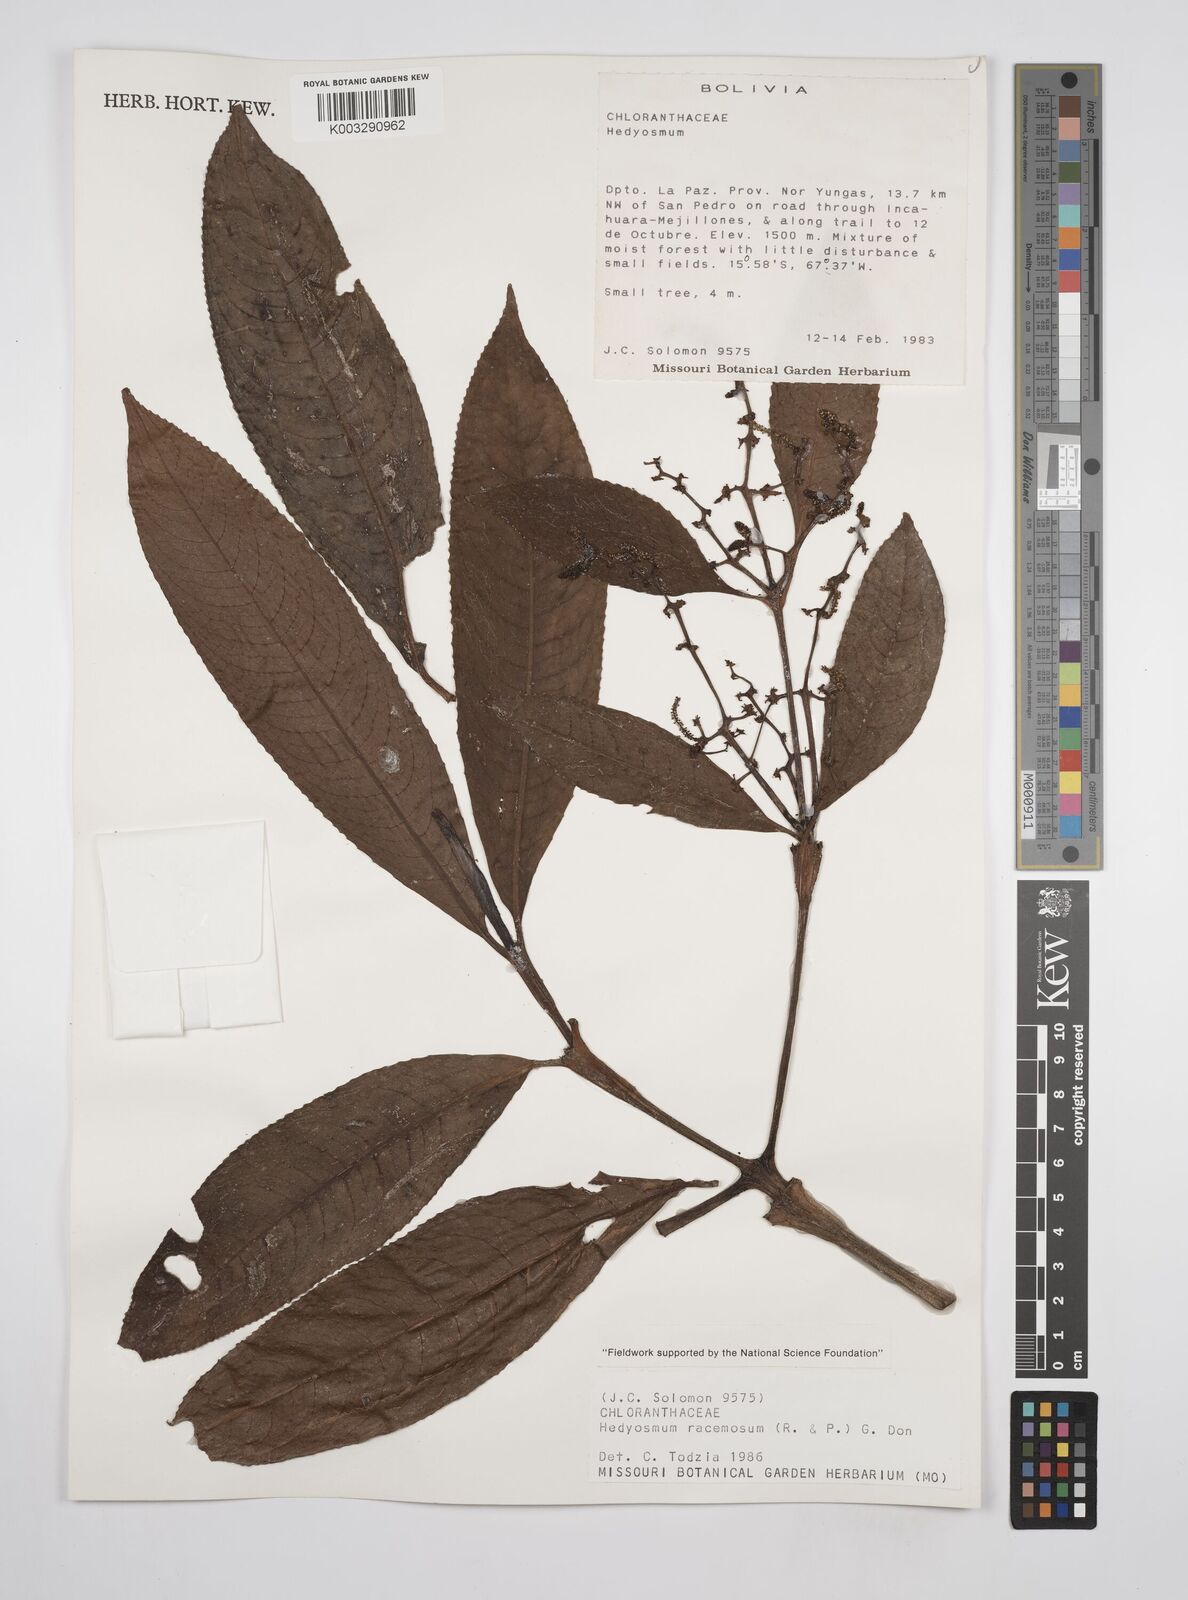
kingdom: Plantae
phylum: Tracheophyta
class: Magnoliopsida
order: Chloranthales
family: Chloranthaceae
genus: Hedyosmum
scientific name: Hedyosmum racemosum
